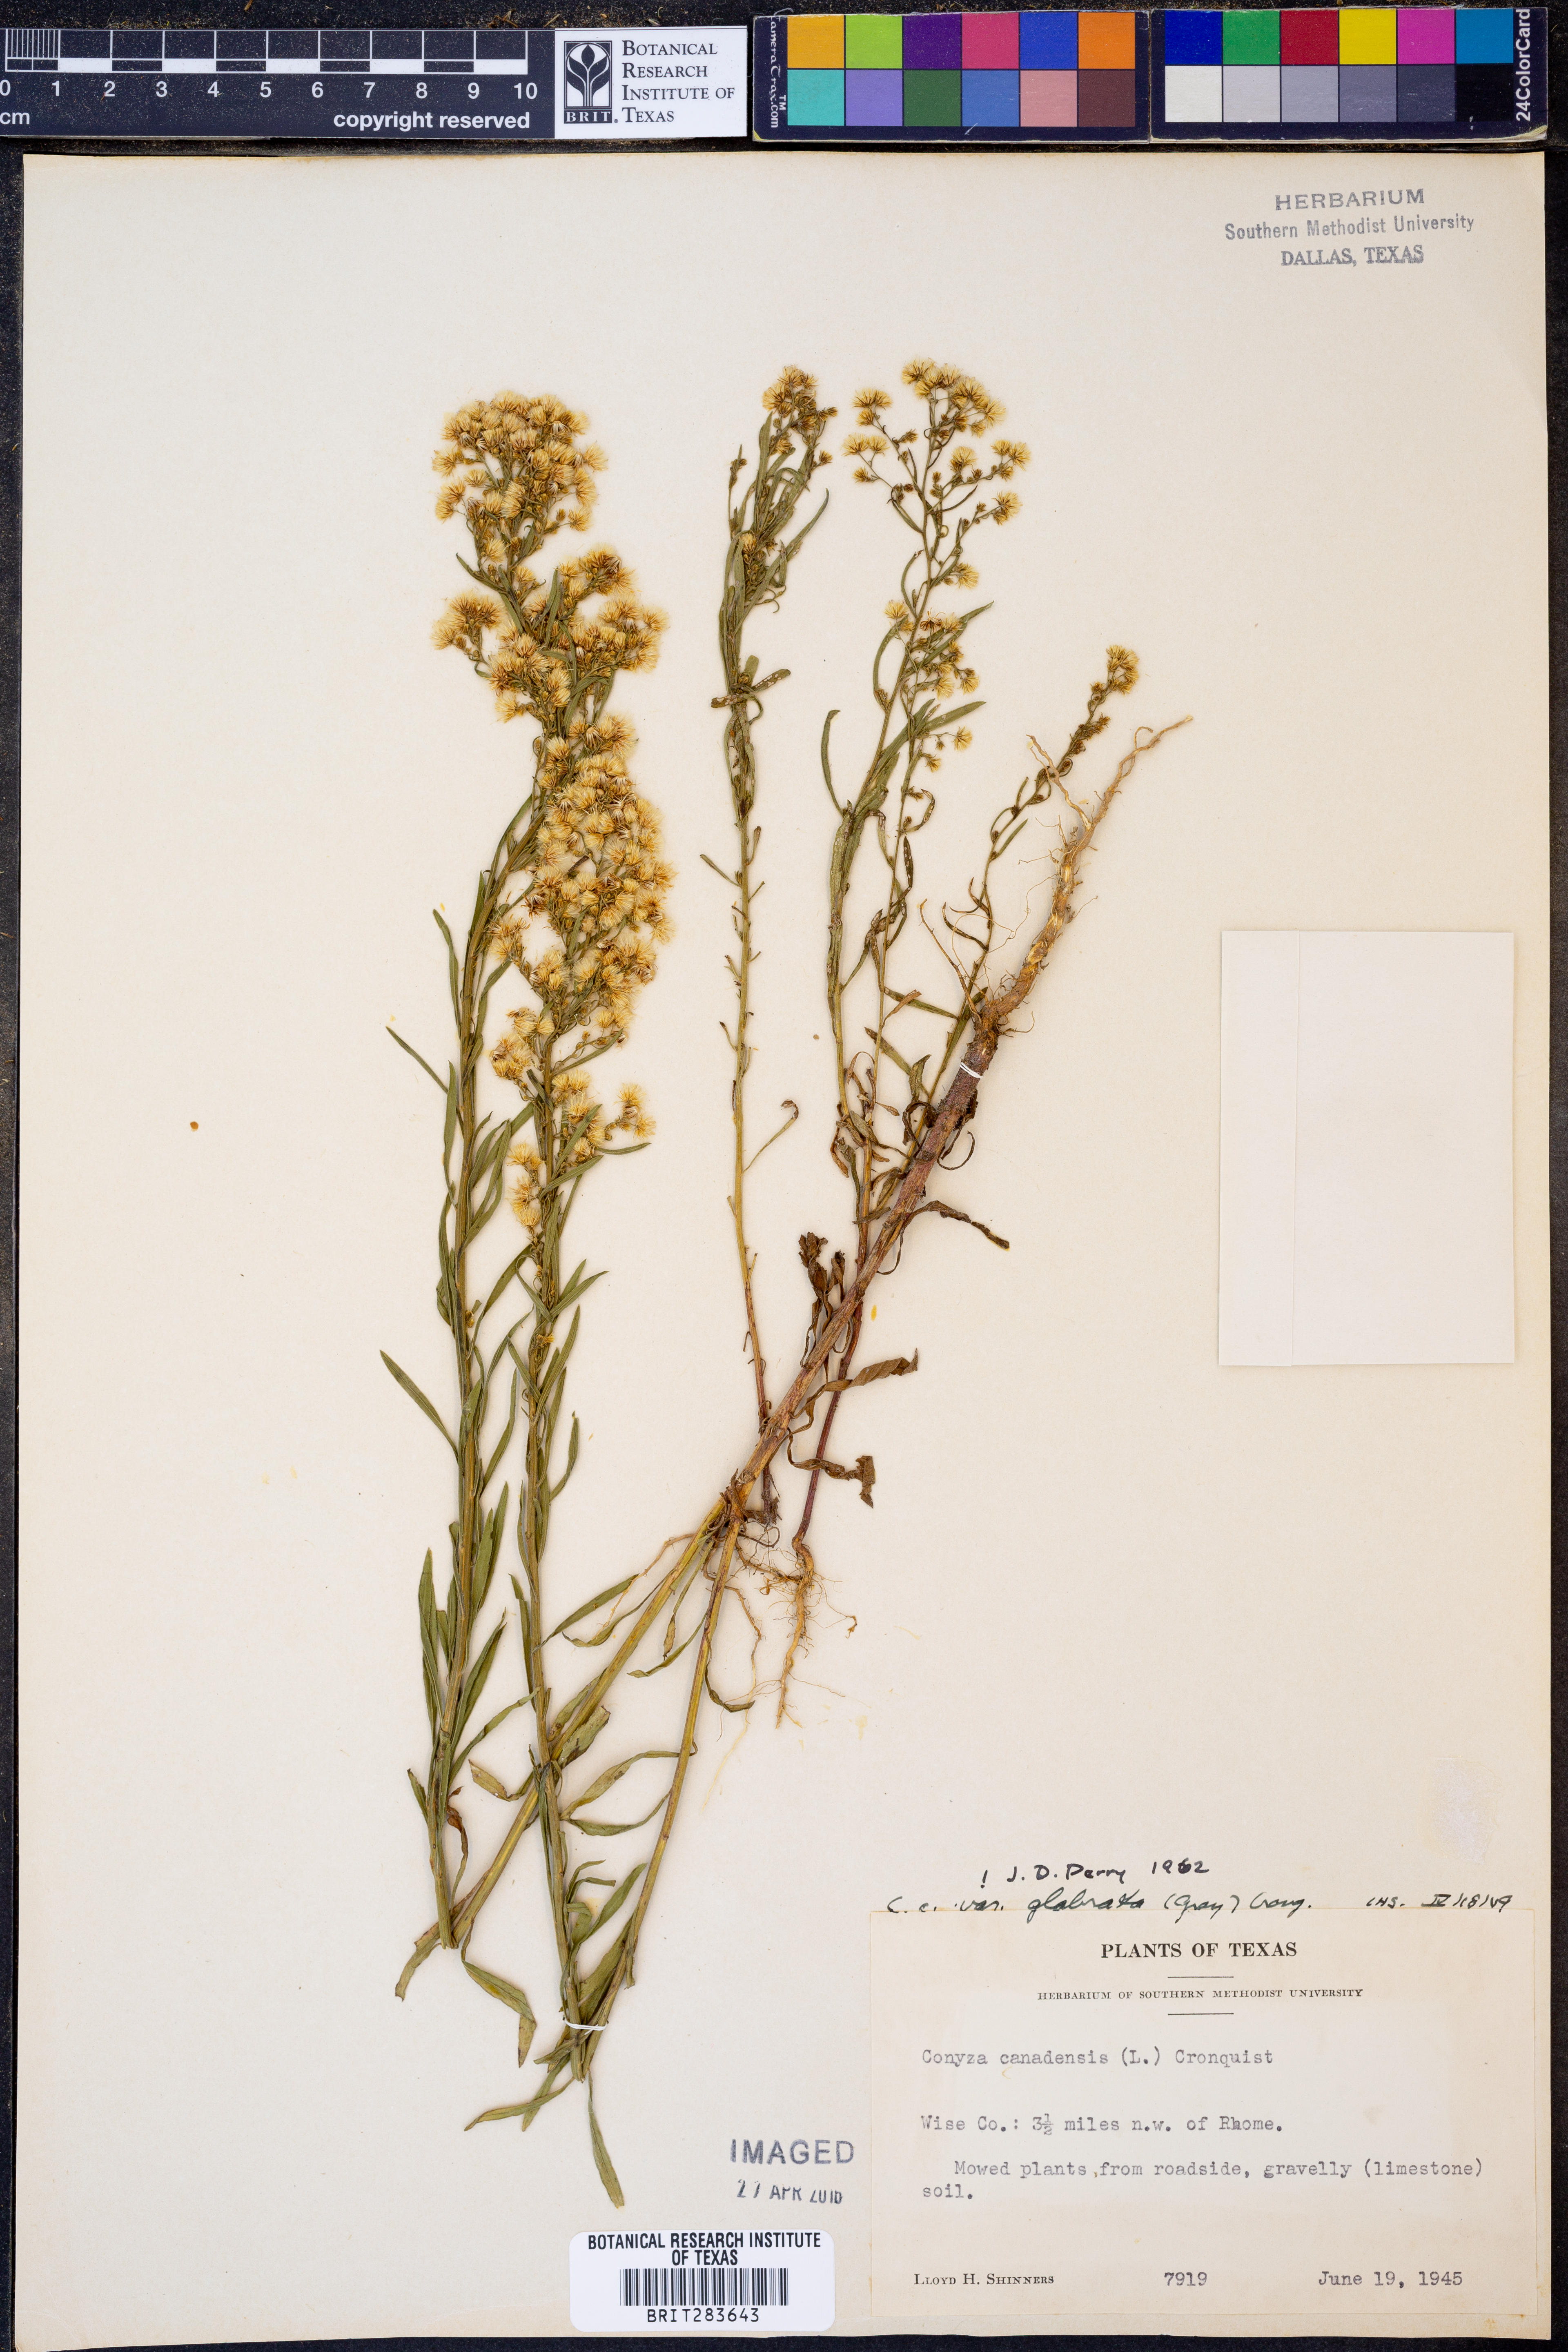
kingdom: Plantae
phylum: Tracheophyta
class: Magnoliopsida
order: Asterales
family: Asteraceae
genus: Erigeron
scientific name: Erigeron canadensis
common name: Canadian fleabane
